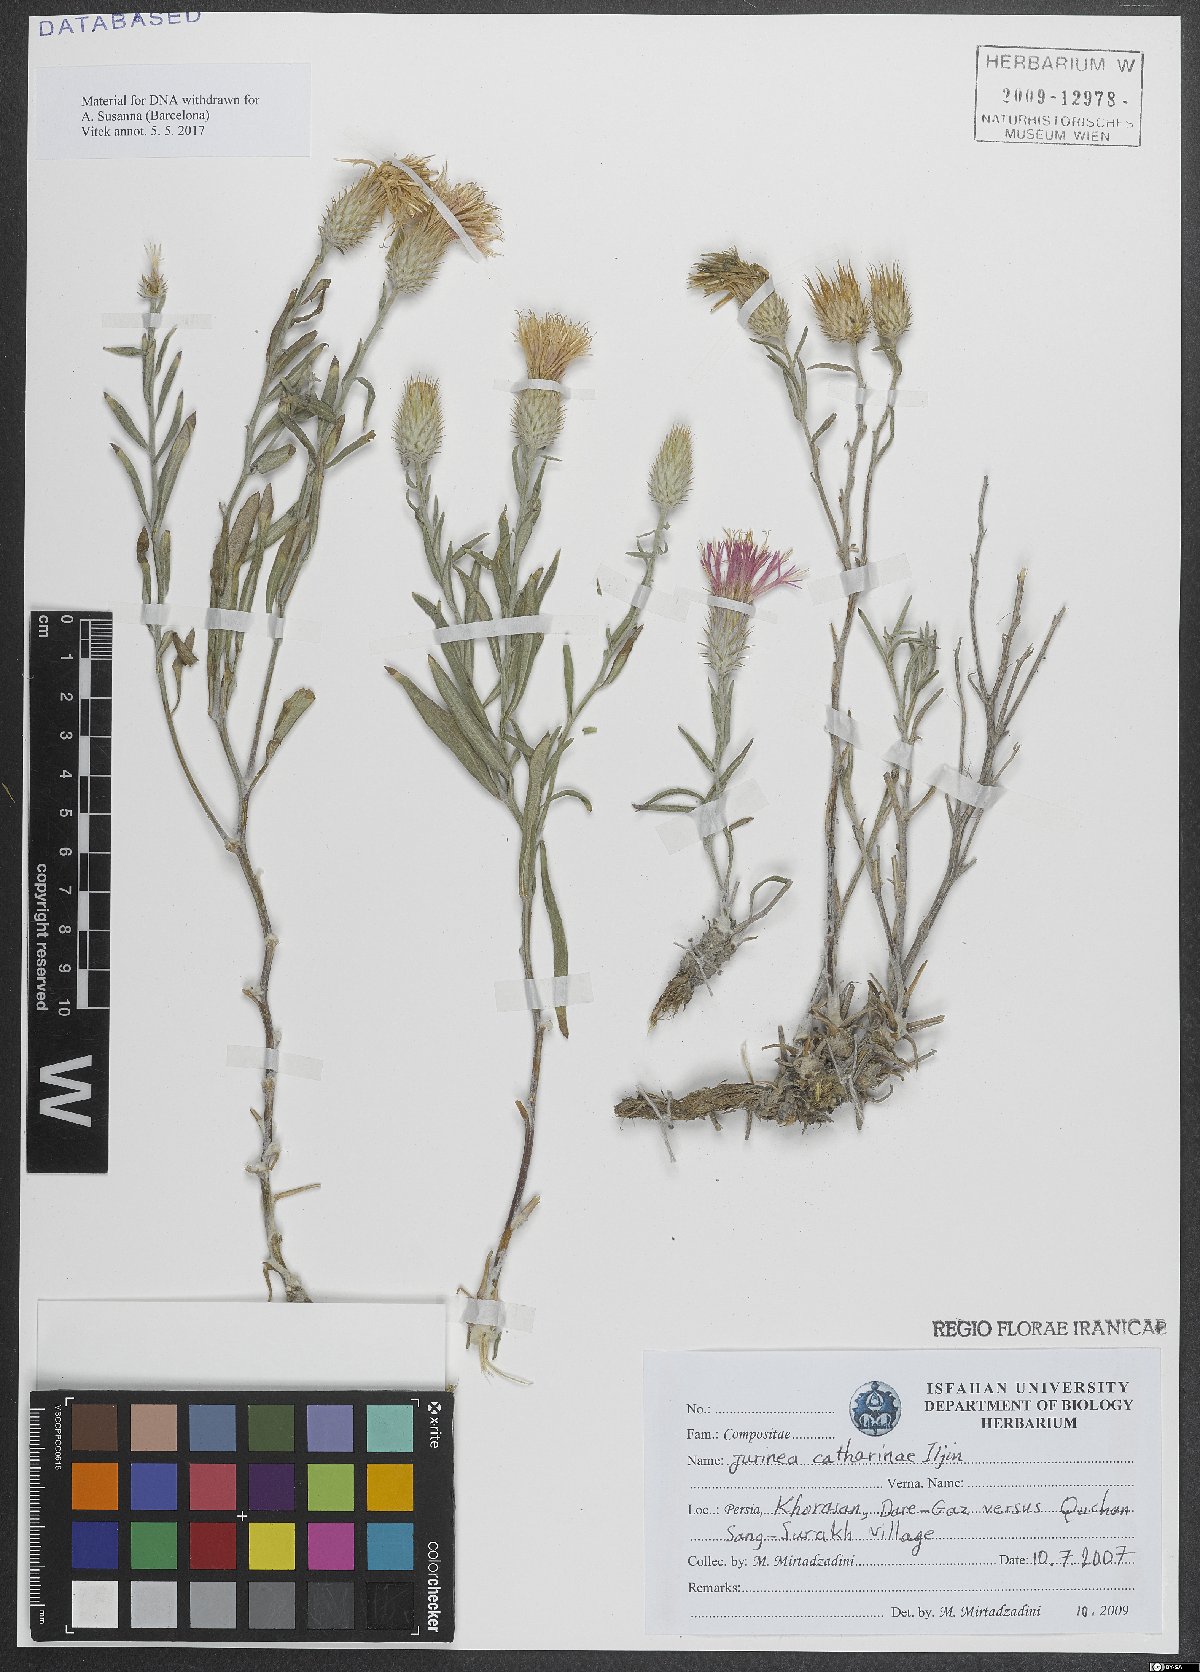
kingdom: Plantae
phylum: Tracheophyta
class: Magnoliopsida
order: Asterales
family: Asteraceae
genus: Jurinea
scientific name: Jurinea catharinae
